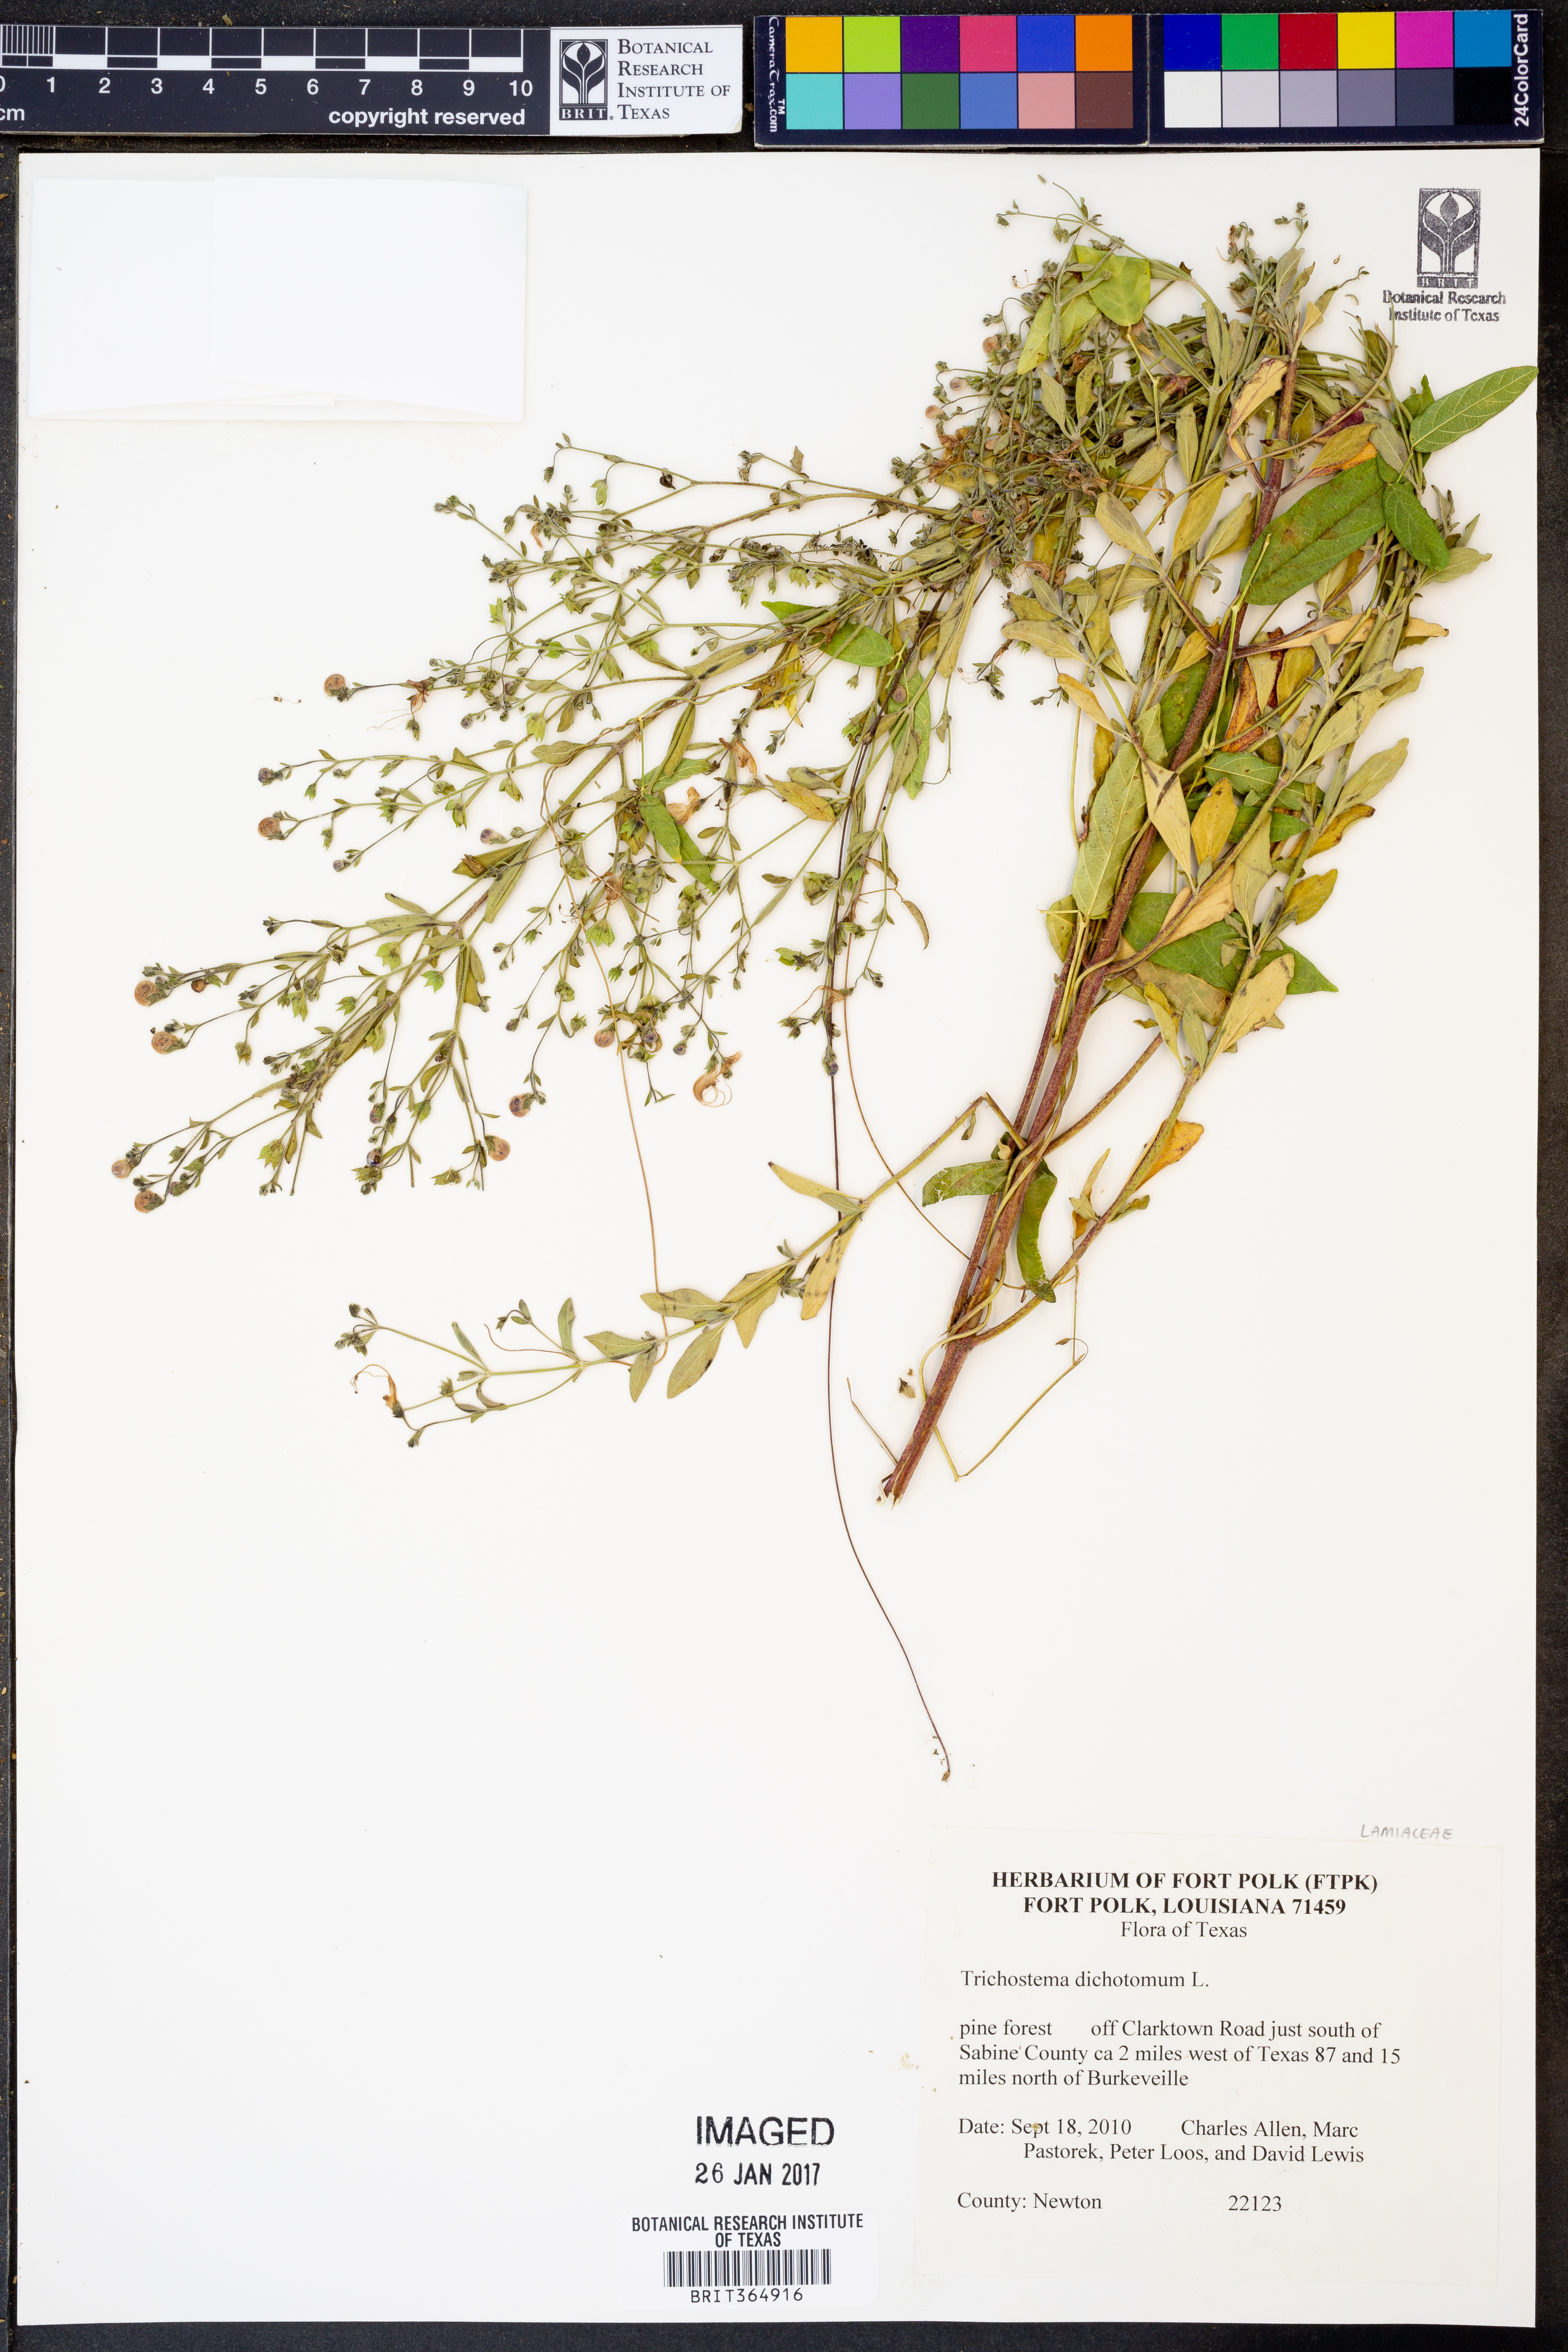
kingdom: Plantae
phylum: Tracheophyta
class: Magnoliopsida
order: Lamiales
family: Lamiaceae
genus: Trichostema
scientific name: Trichostema dichotomum
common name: Bastard pennyroyal
